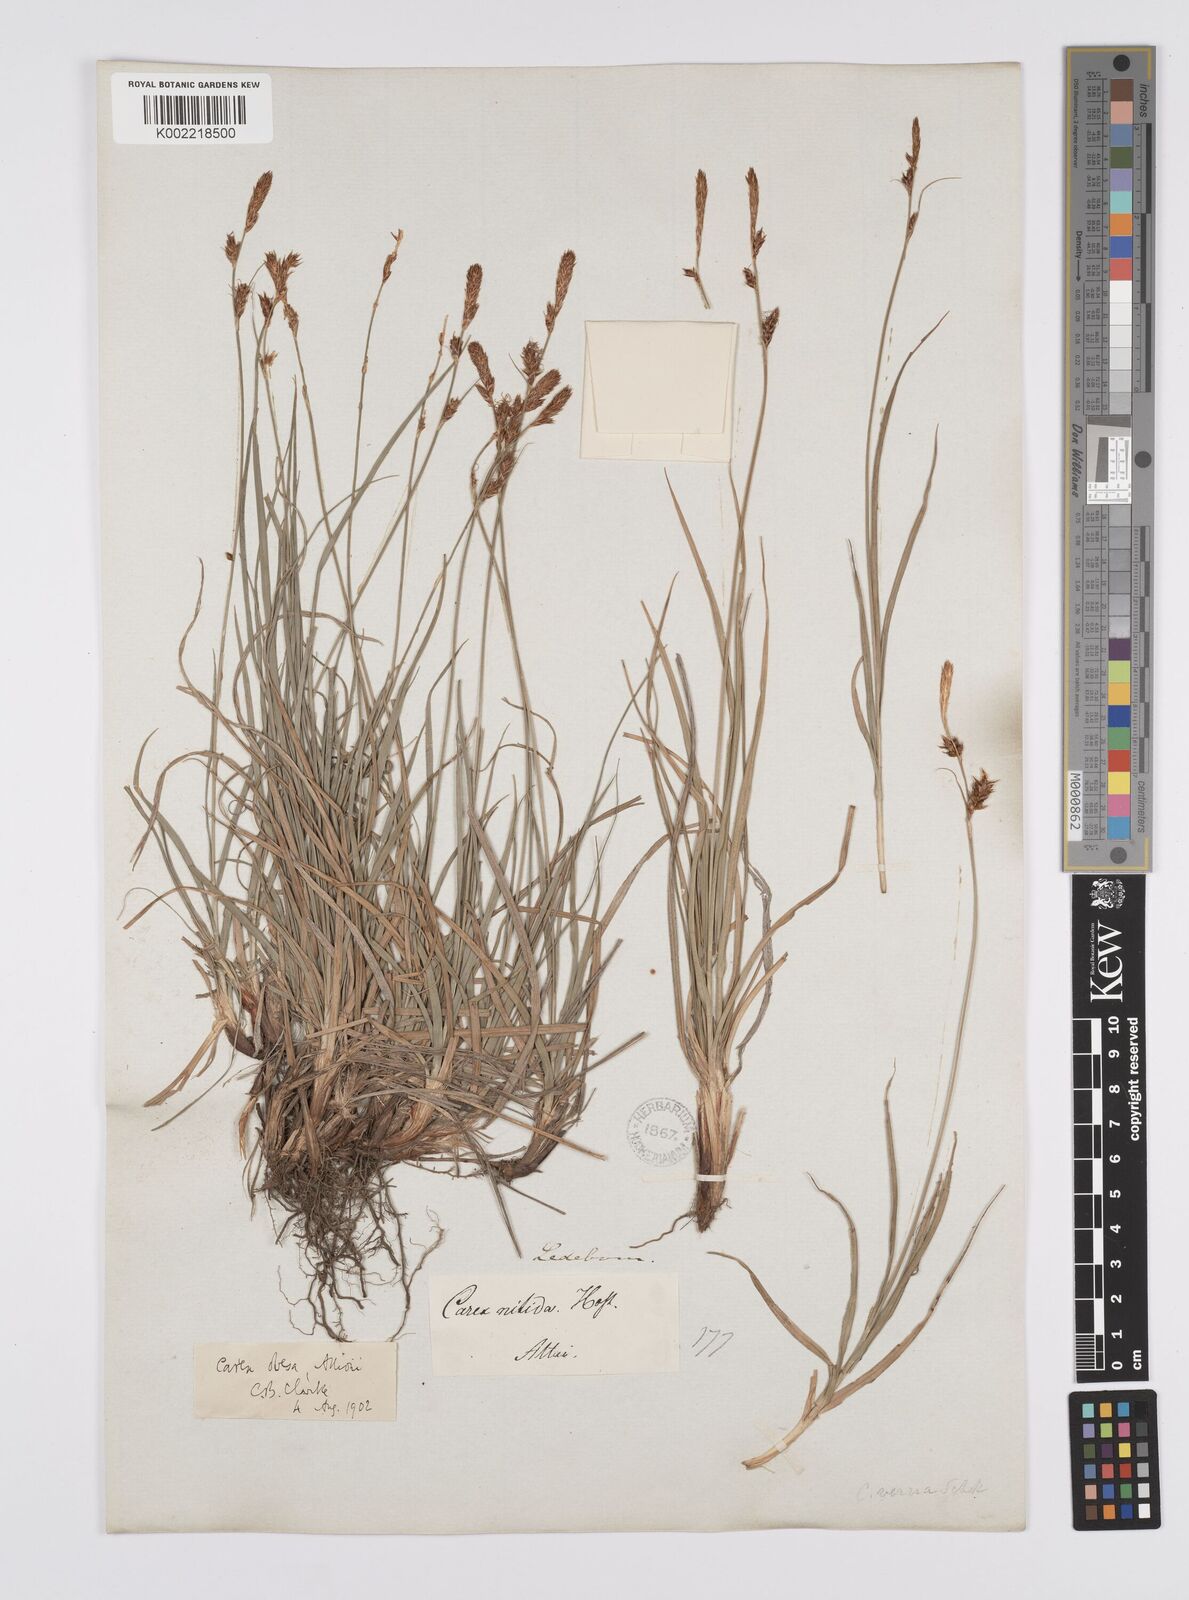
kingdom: Plantae
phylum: Tracheophyta
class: Liliopsida
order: Poales
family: Cyperaceae
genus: Carex
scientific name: Carex liparocarpos
